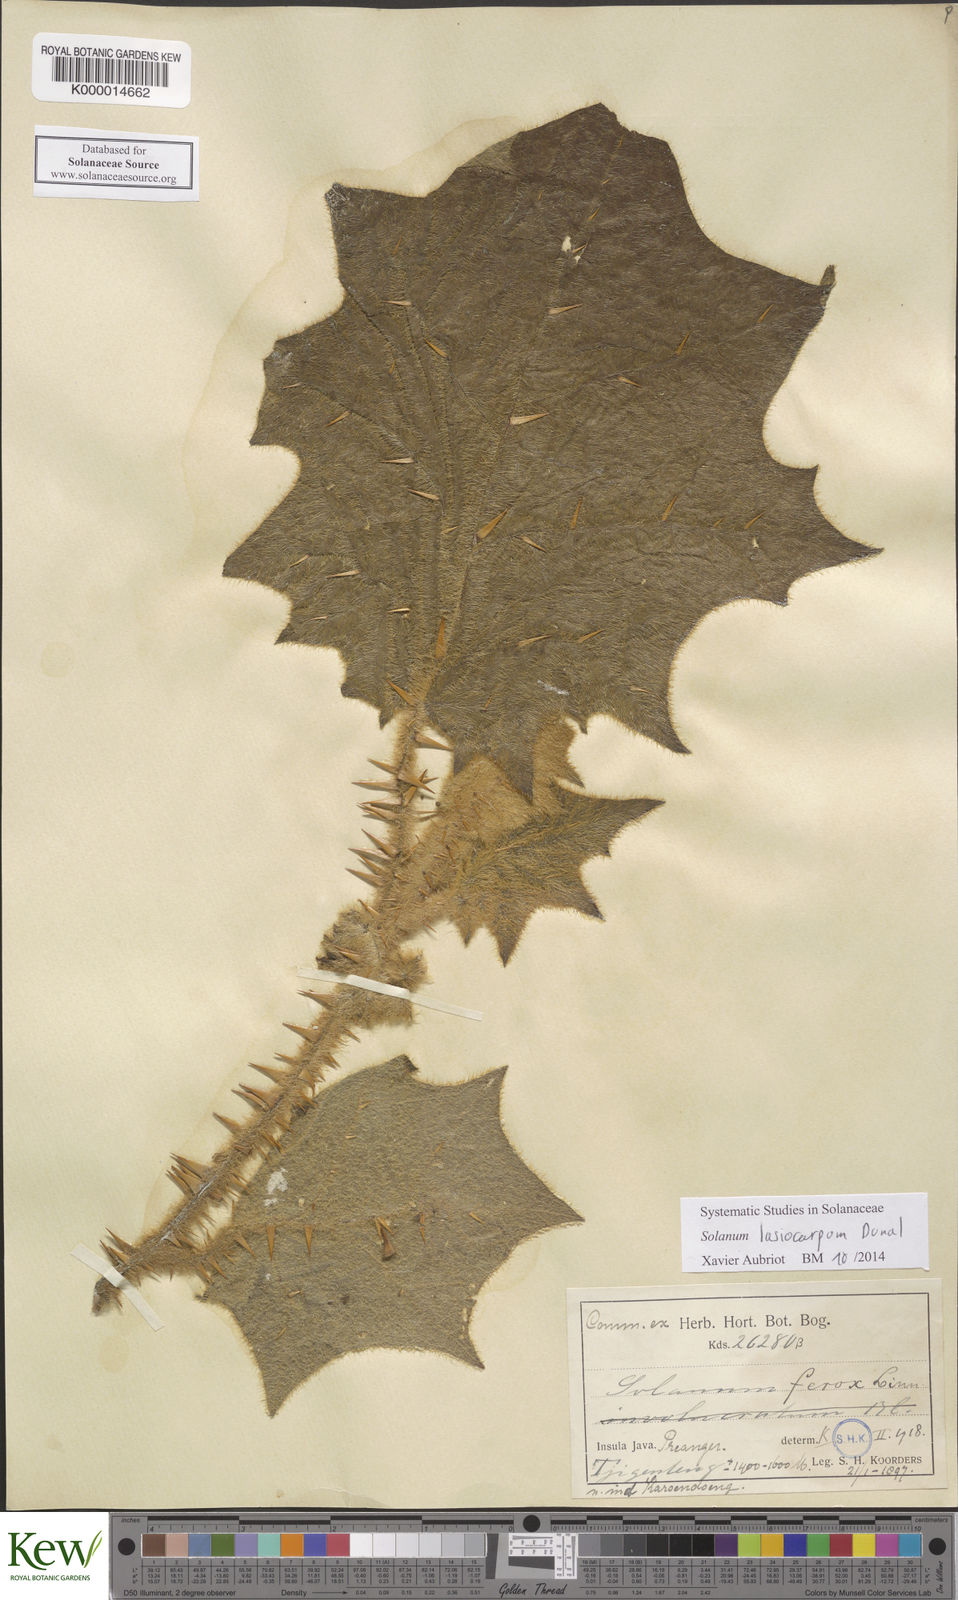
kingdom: Plantae
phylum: Tracheophyta
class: Magnoliopsida
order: Solanales
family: Solanaceae
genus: Solanum
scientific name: Solanum lasiocarpum
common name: Indian nightshade
